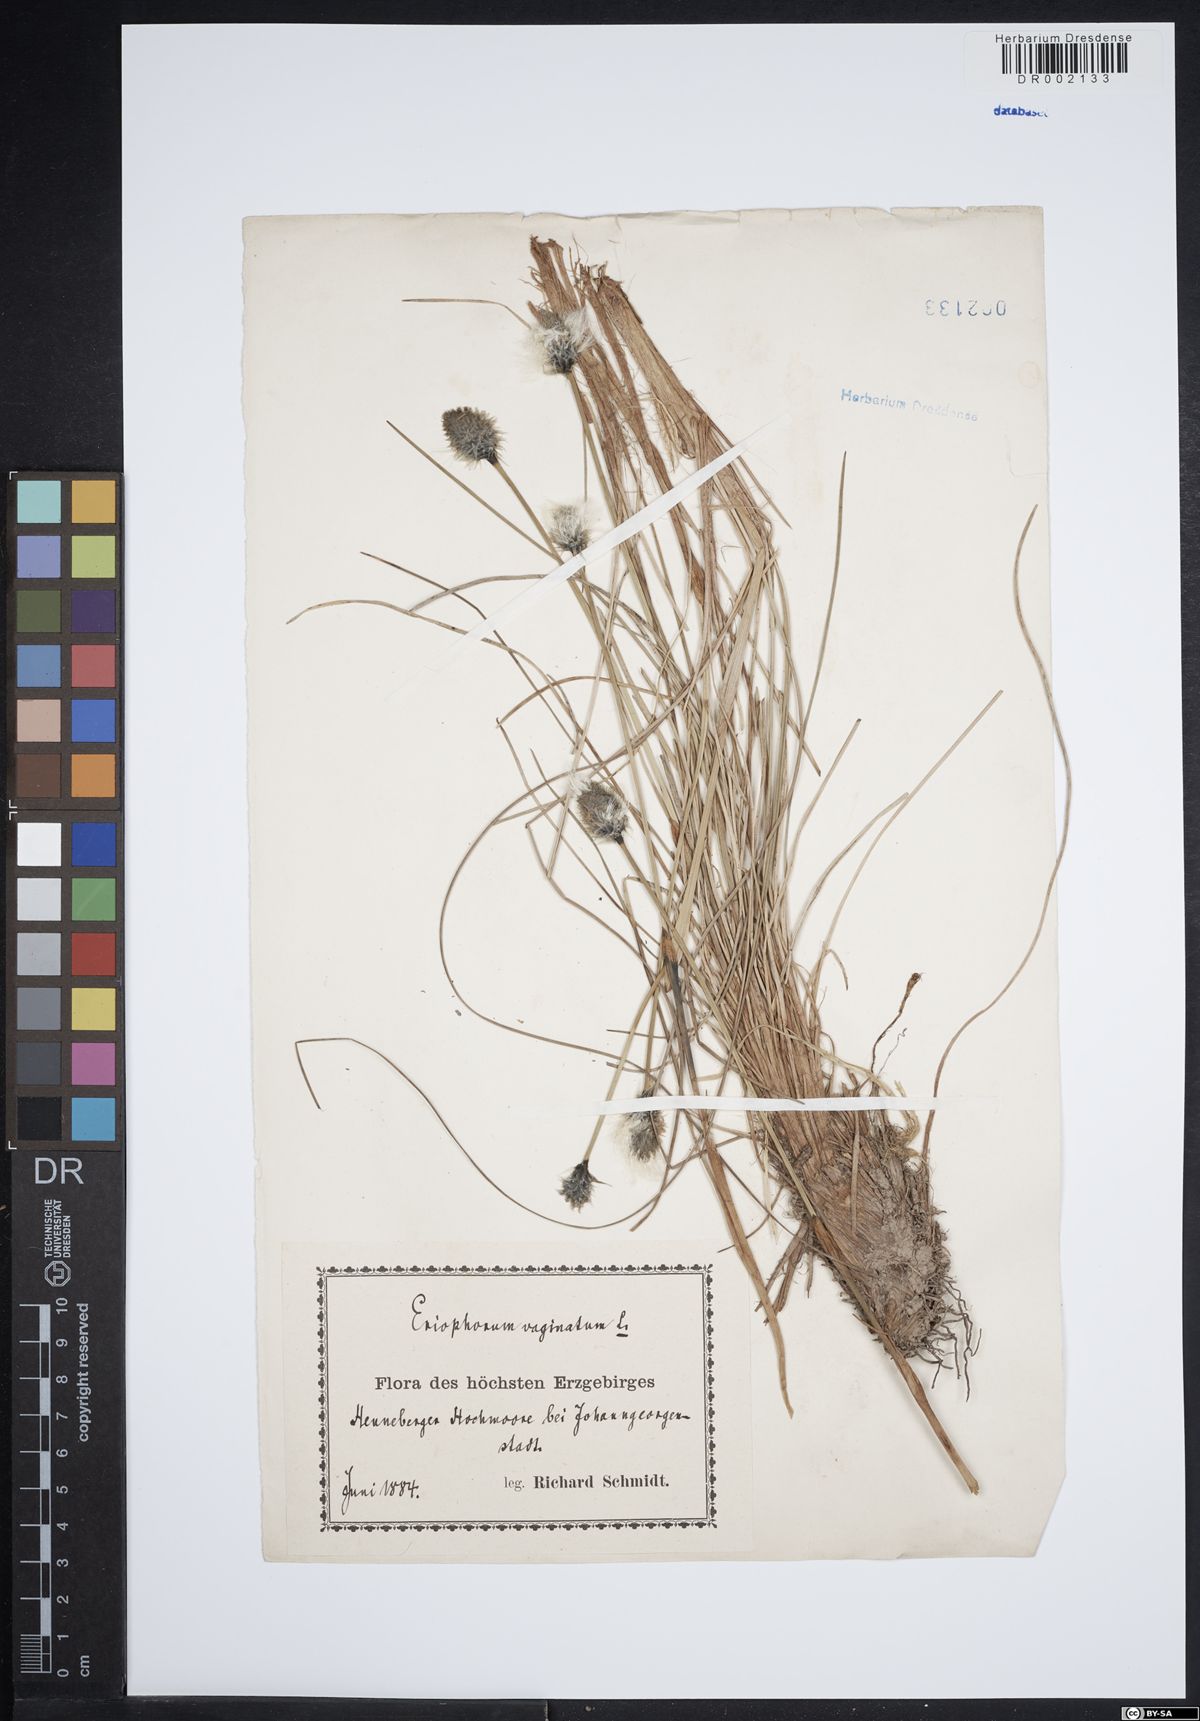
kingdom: Plantae
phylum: Tracheophyta
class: Liliopsida
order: Poales
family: Cyperaceae
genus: Eriophorum
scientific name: Eriophorum vaginatum
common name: Hare's-tail cottongrass
